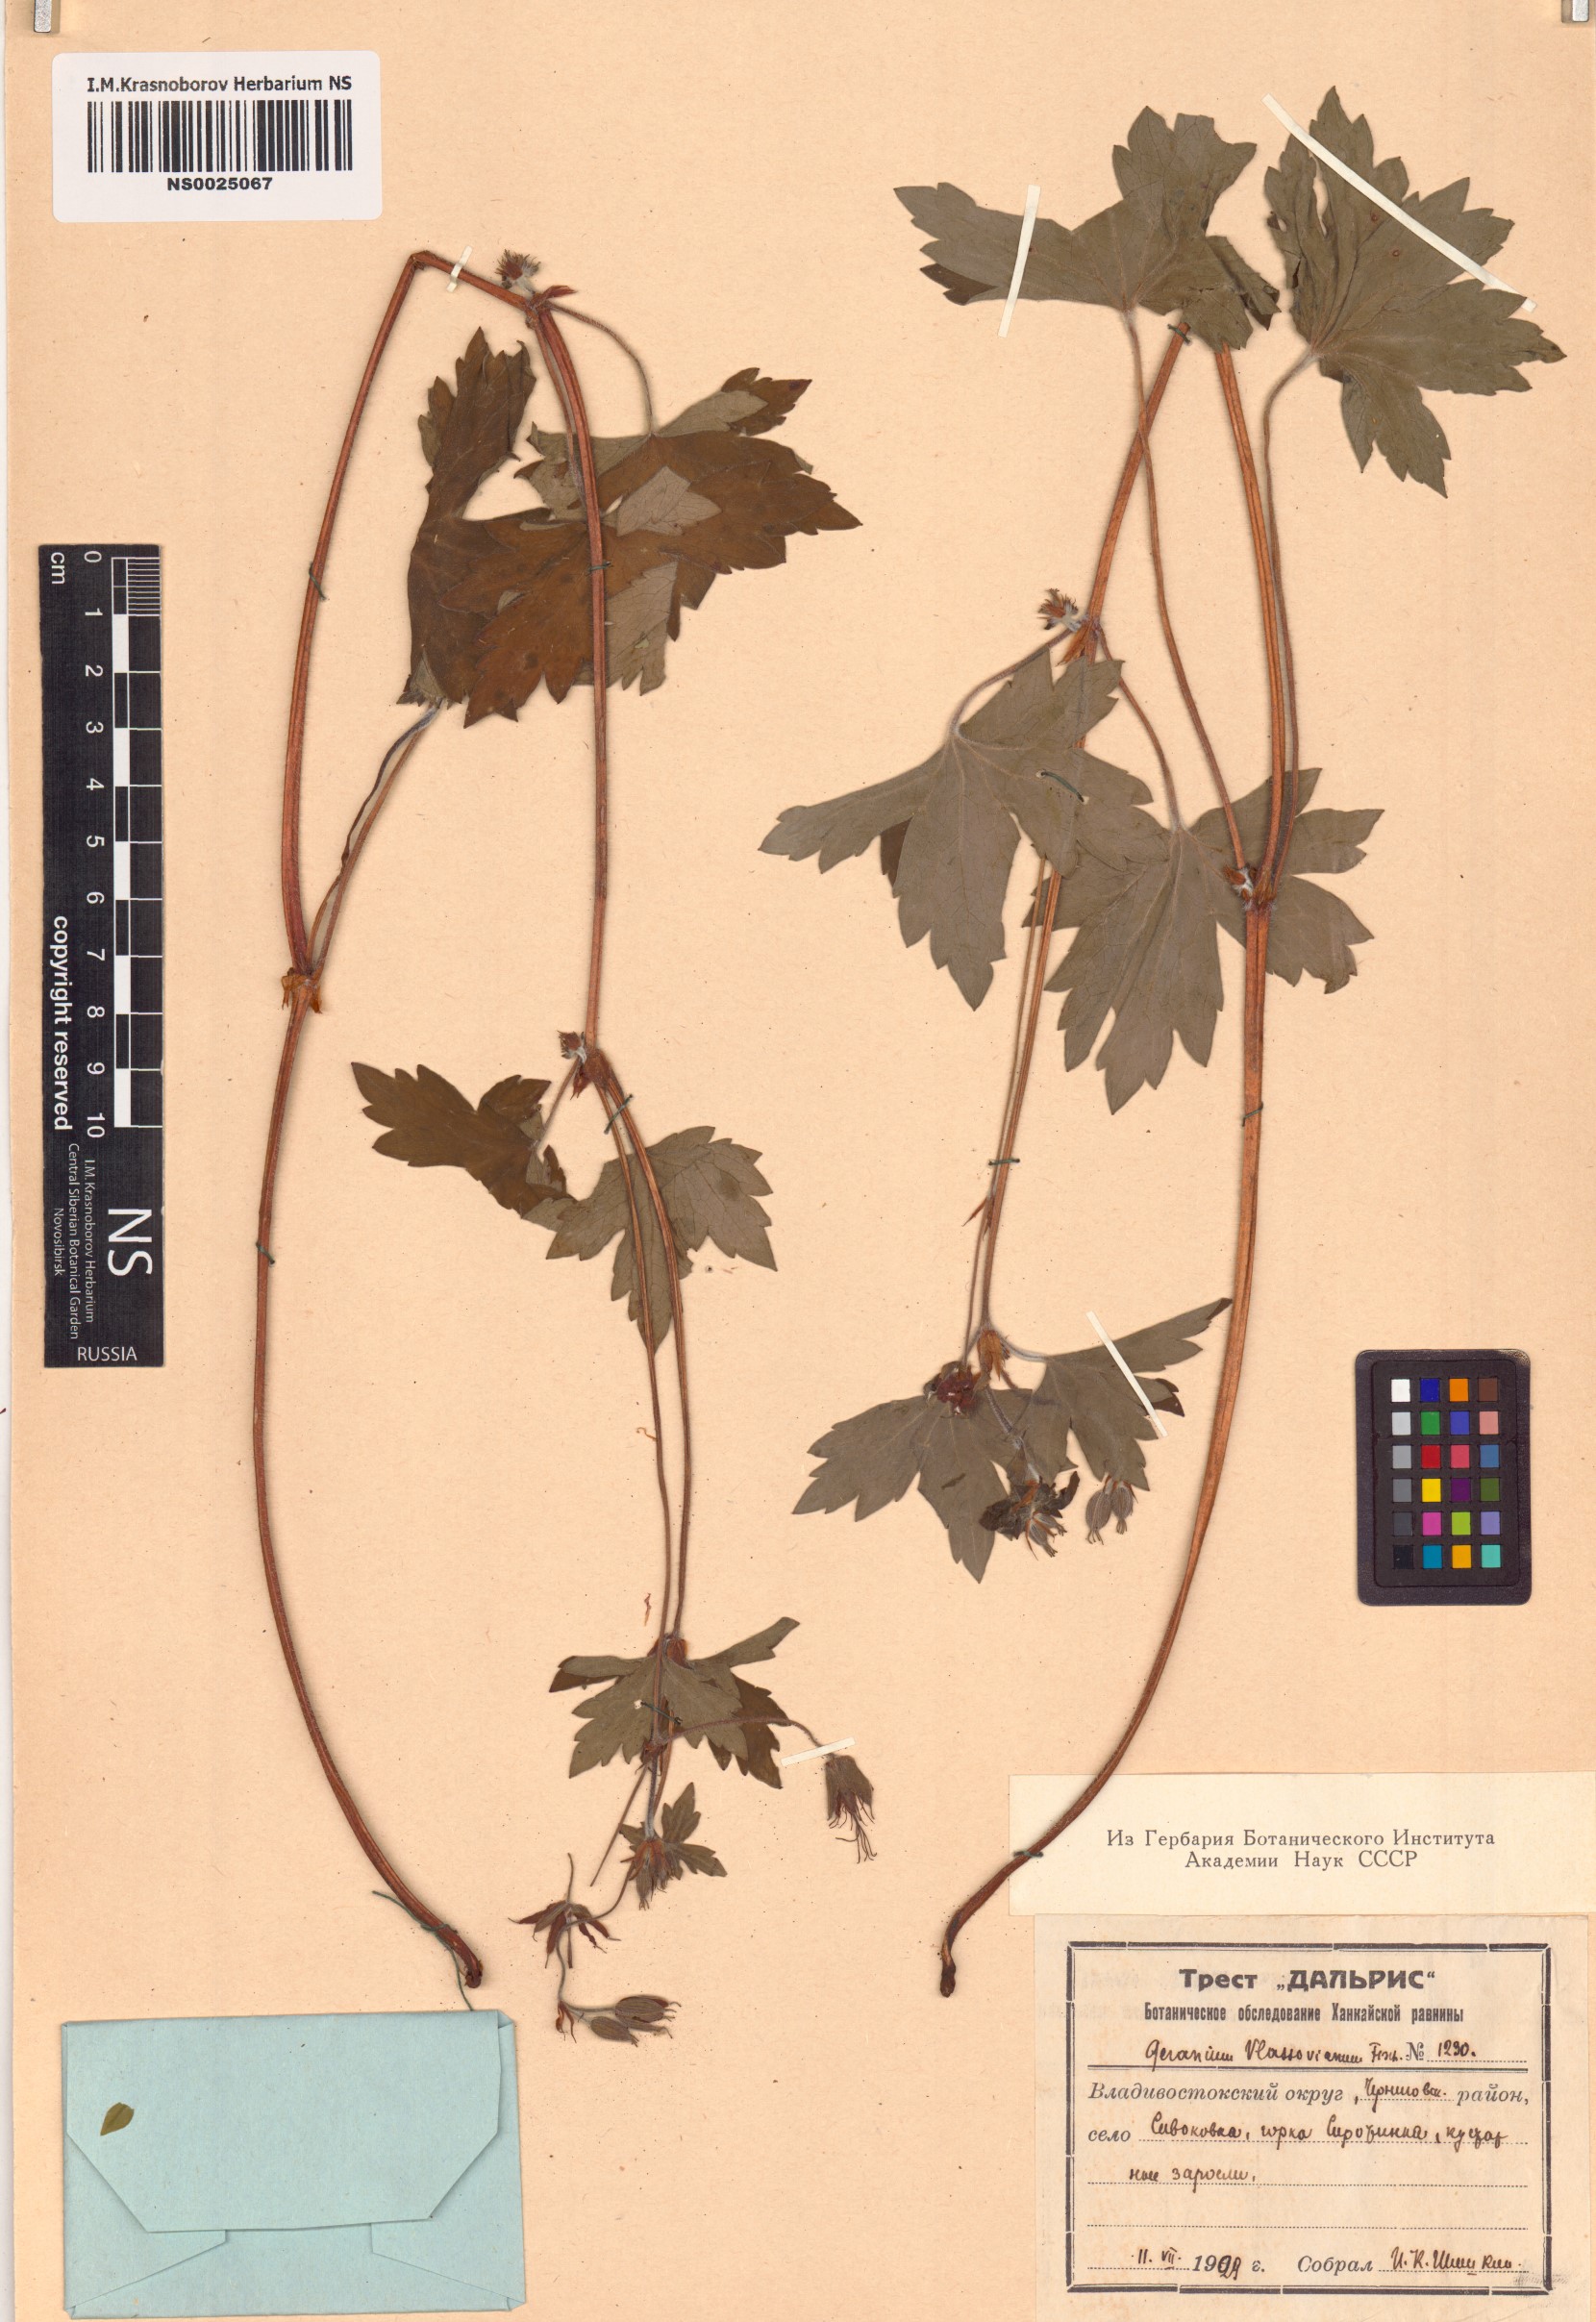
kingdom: Plantae
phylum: Tracheophyta
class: Magnoliopsida
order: Geraniales
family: Geraniaceae
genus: Geranium
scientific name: Geranium wlassovianum
